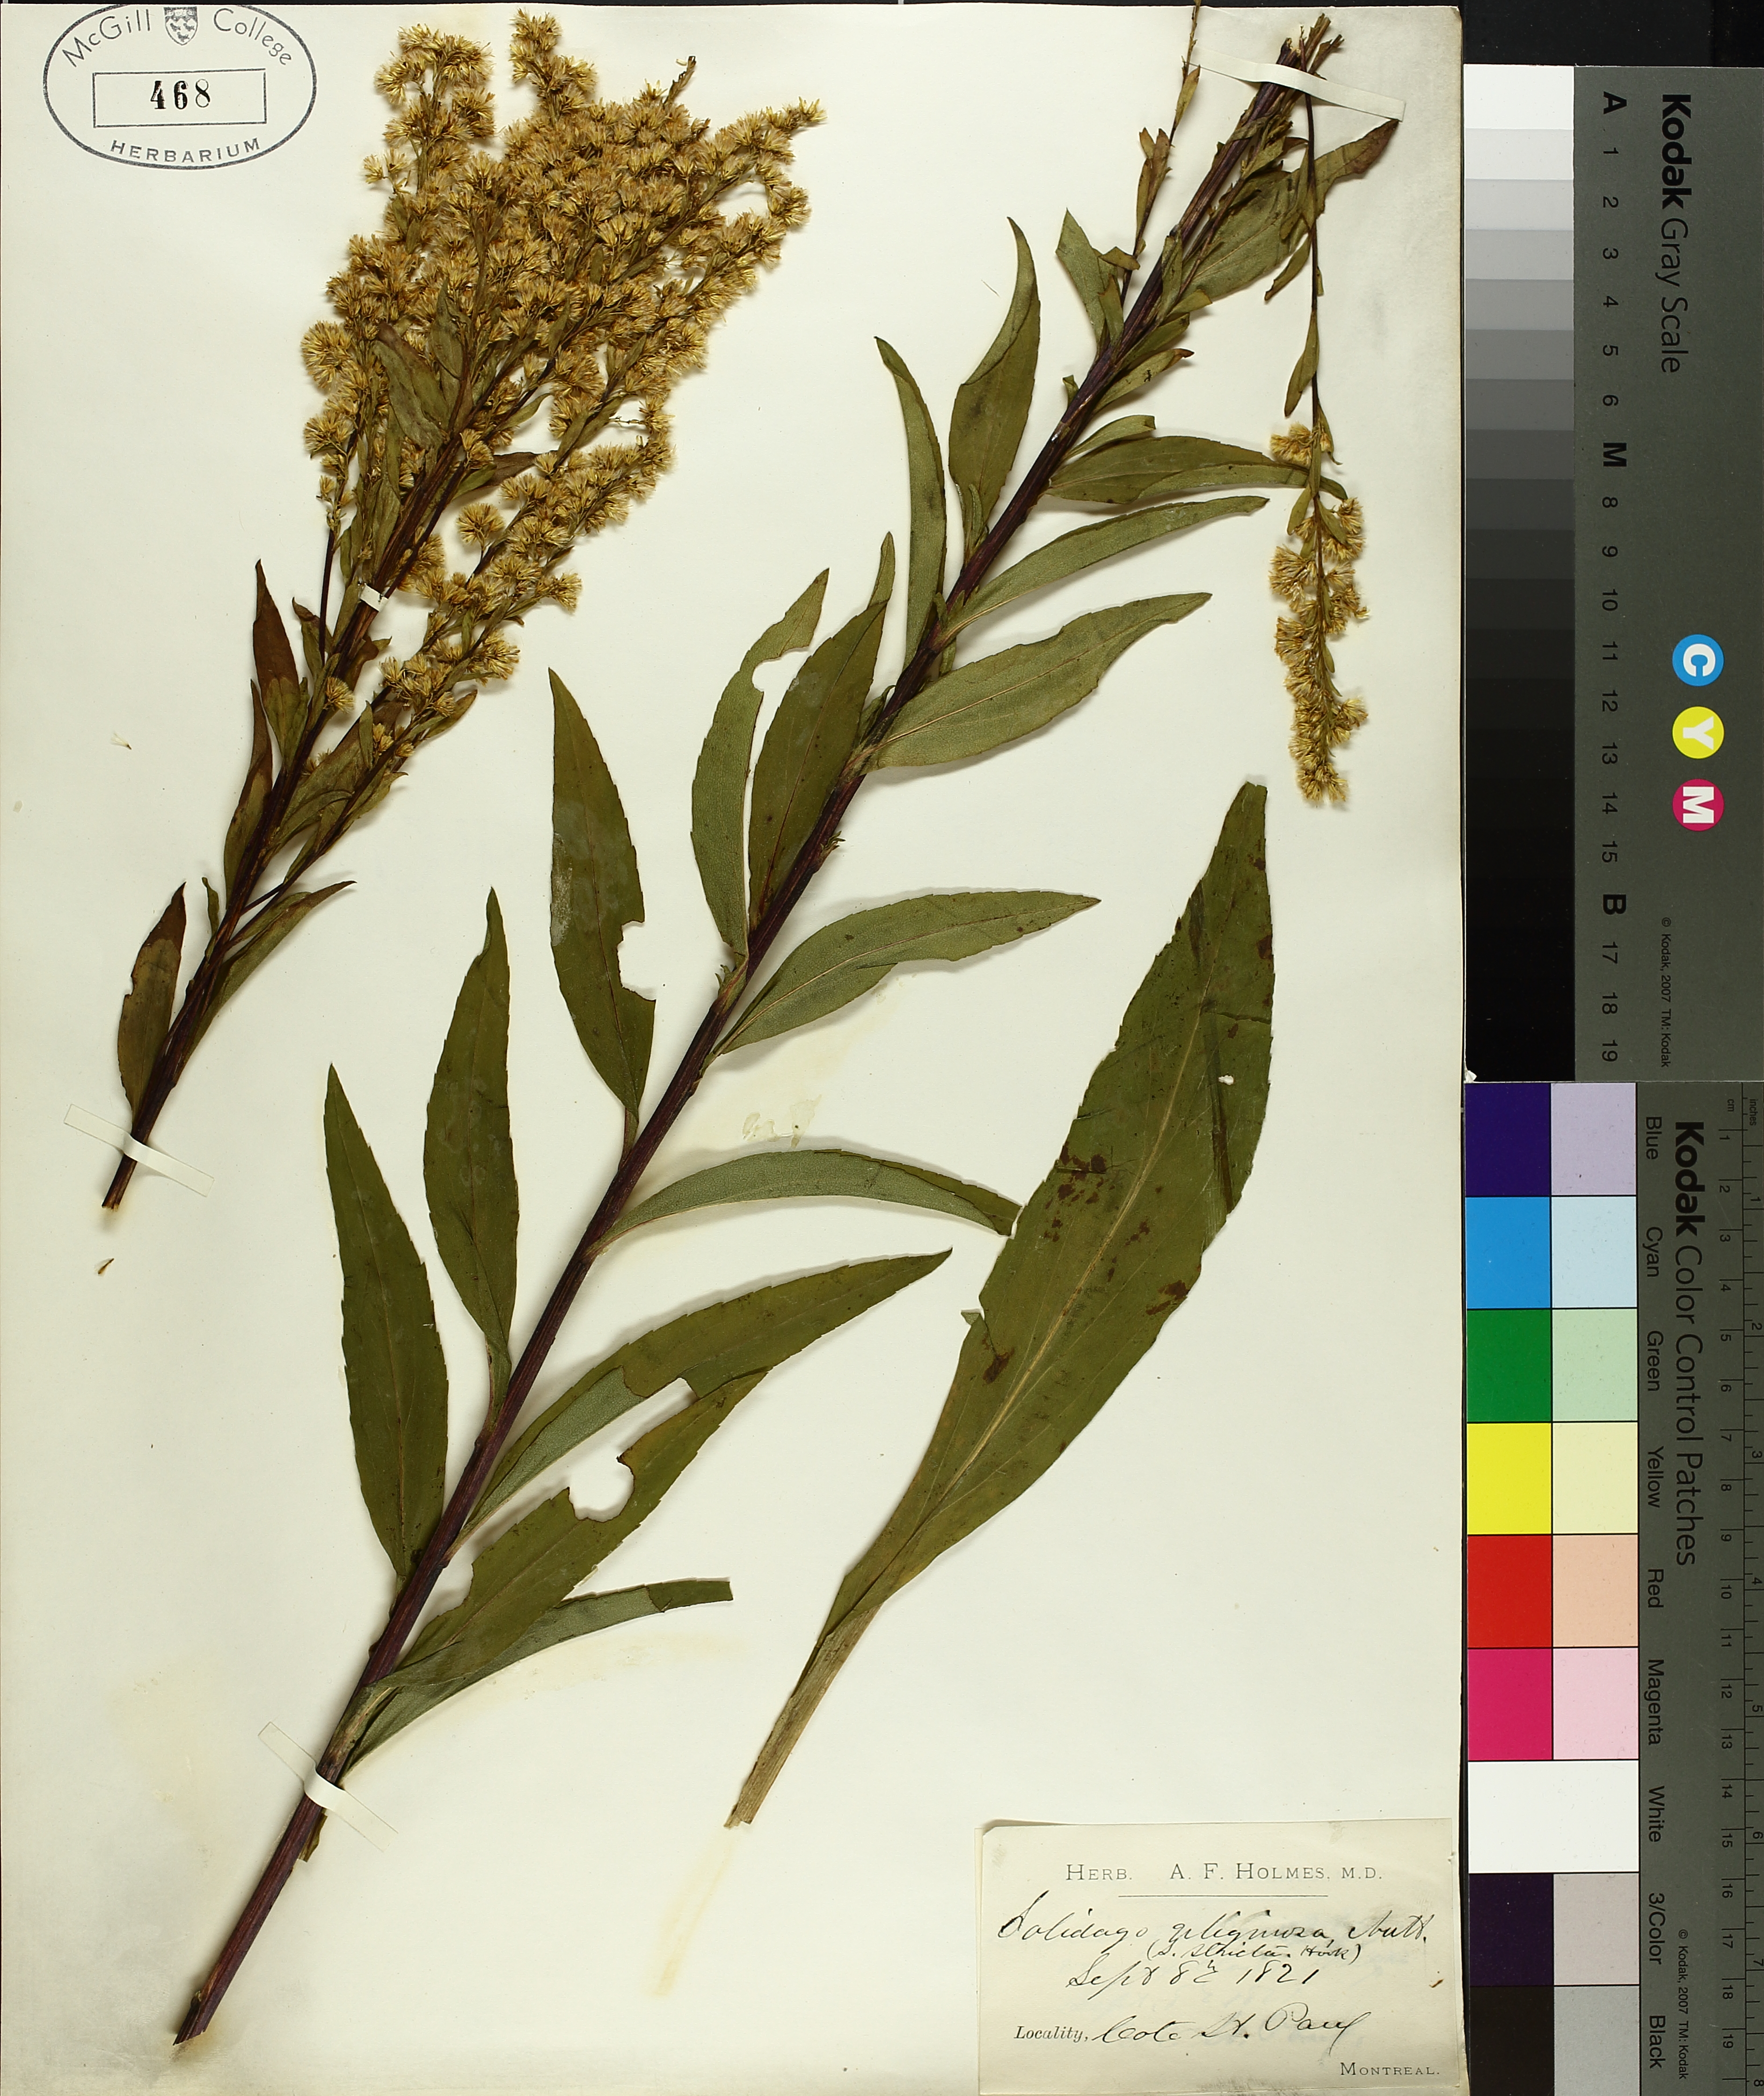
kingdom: Plantae
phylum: Tracheophyta
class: Magnoliopsida
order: Asterales
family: Asteraceae
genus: Solidago
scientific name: Solidago uliginosa
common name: Bog goldenrod
